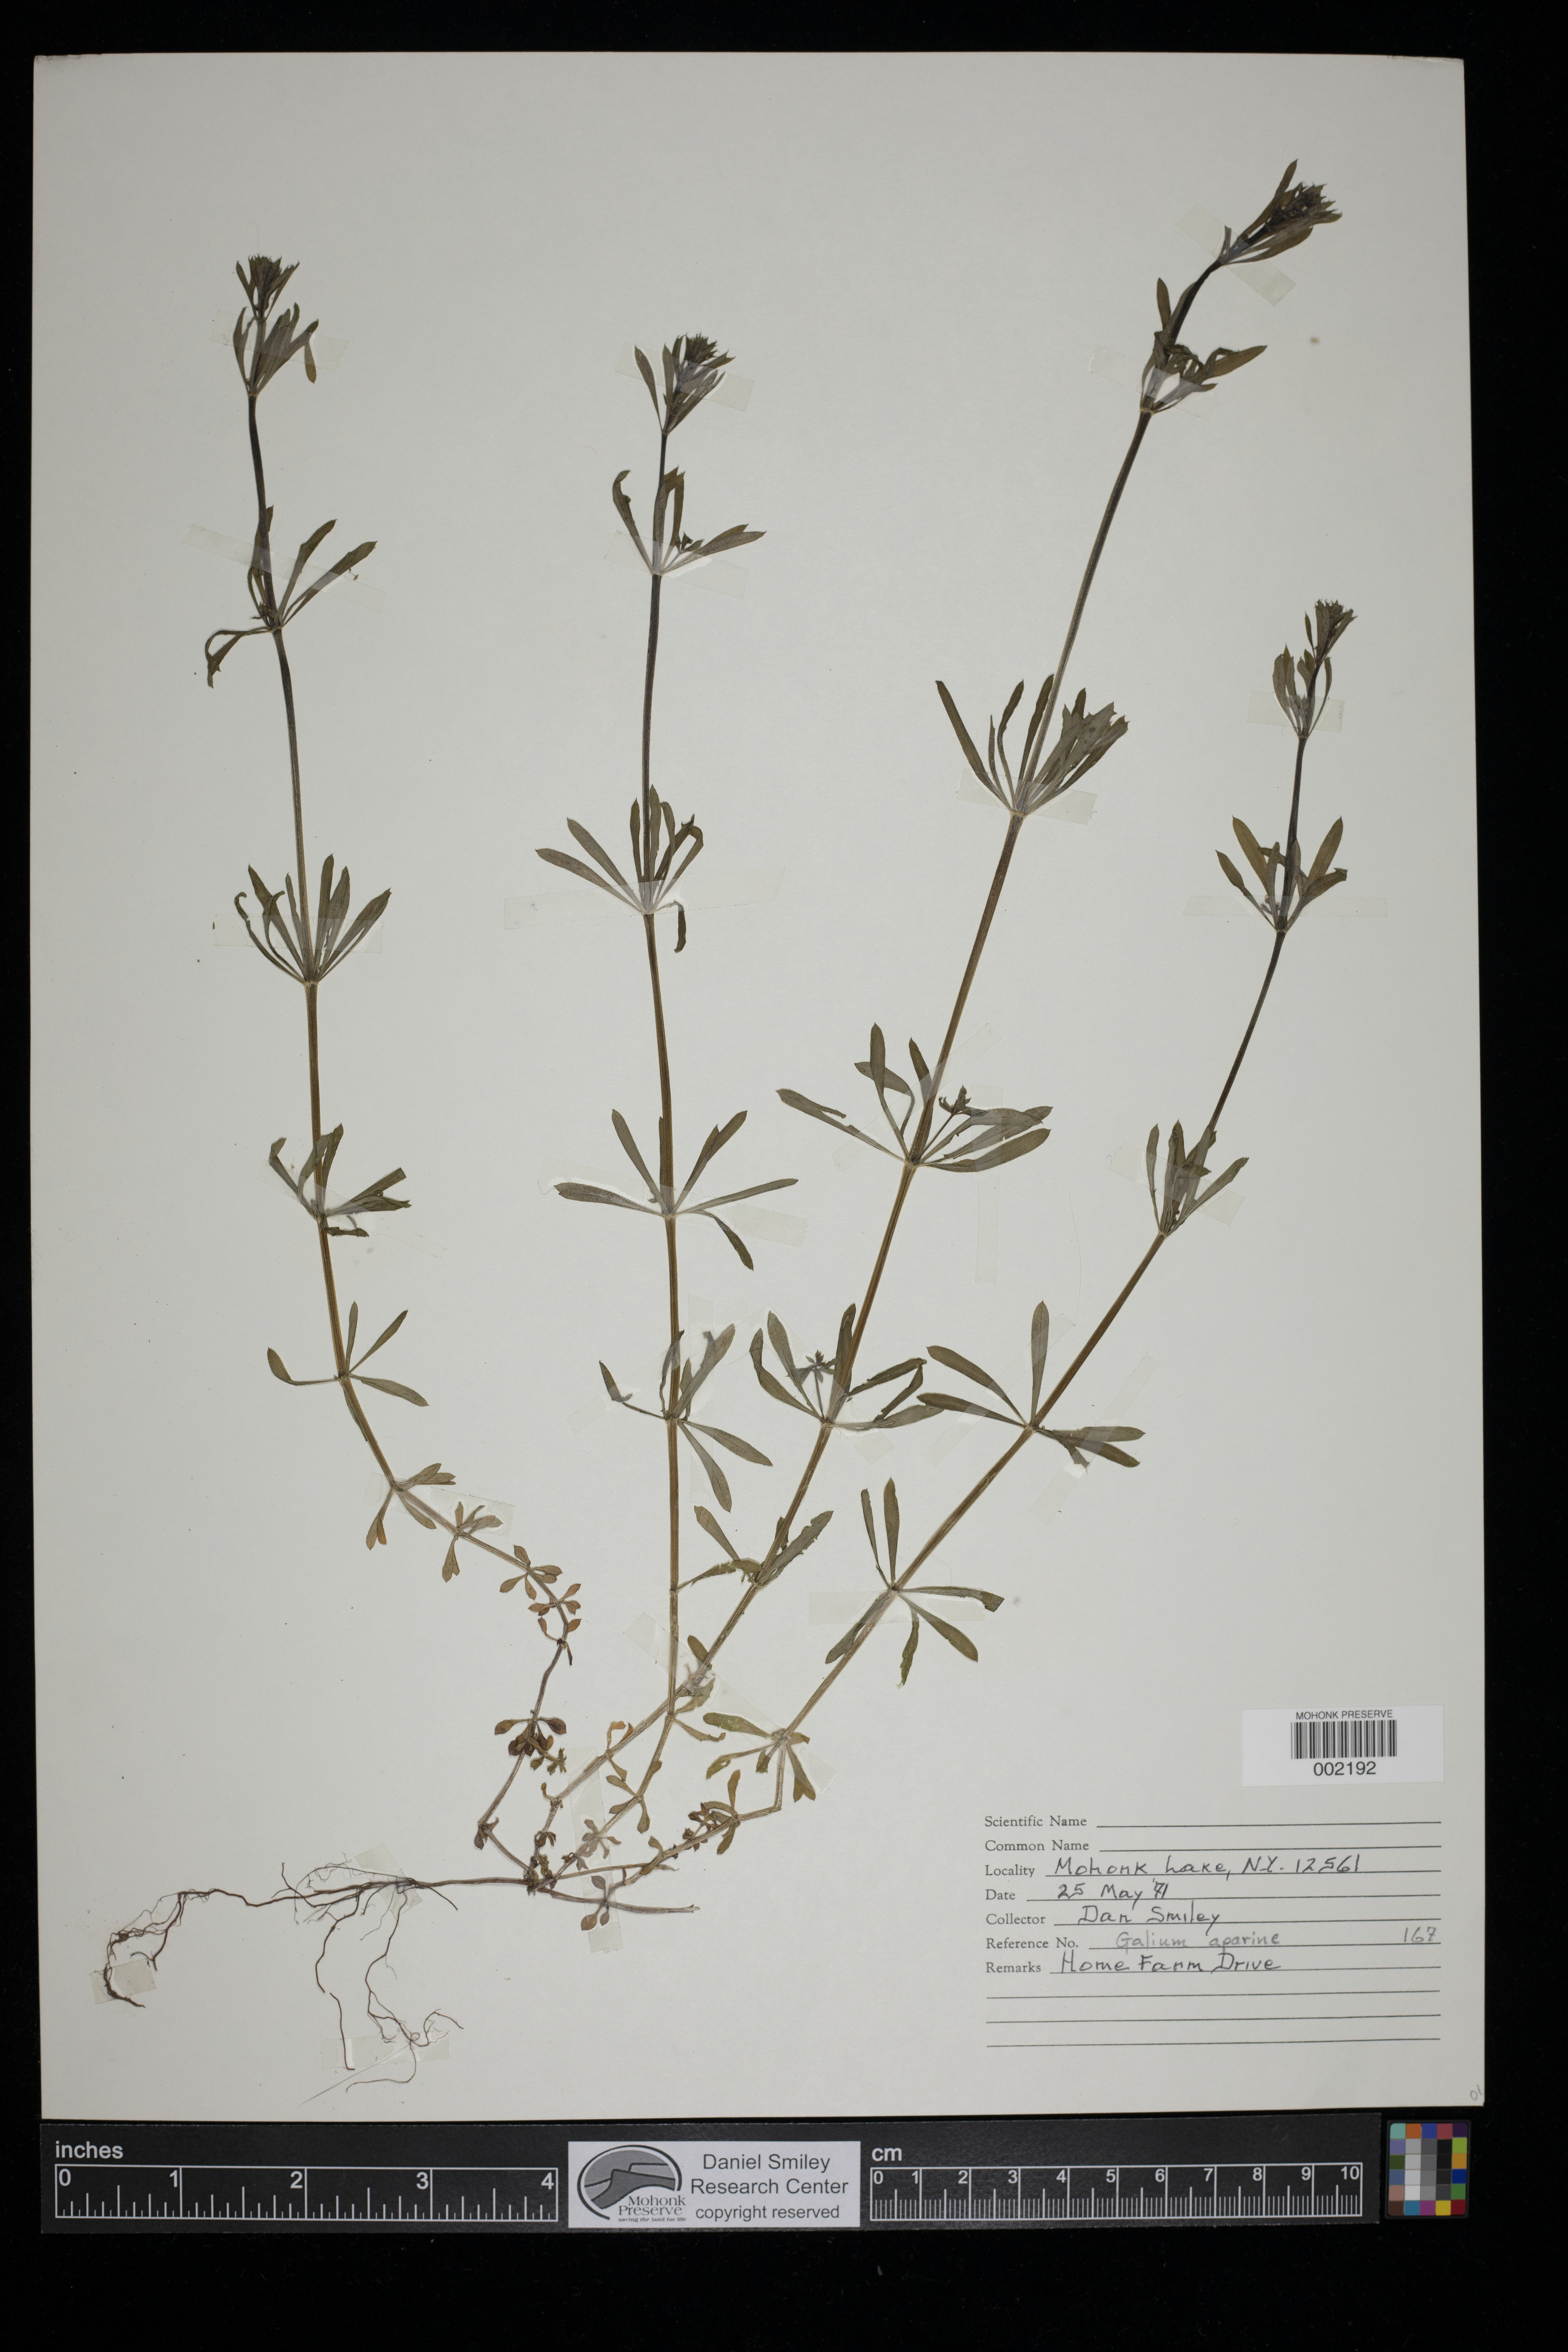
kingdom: Plantae
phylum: Tracheophyta
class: Magnoliopsida
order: Gentianales
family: Rubiaceae
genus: Galium
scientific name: Galium aparine
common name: Cleavers
